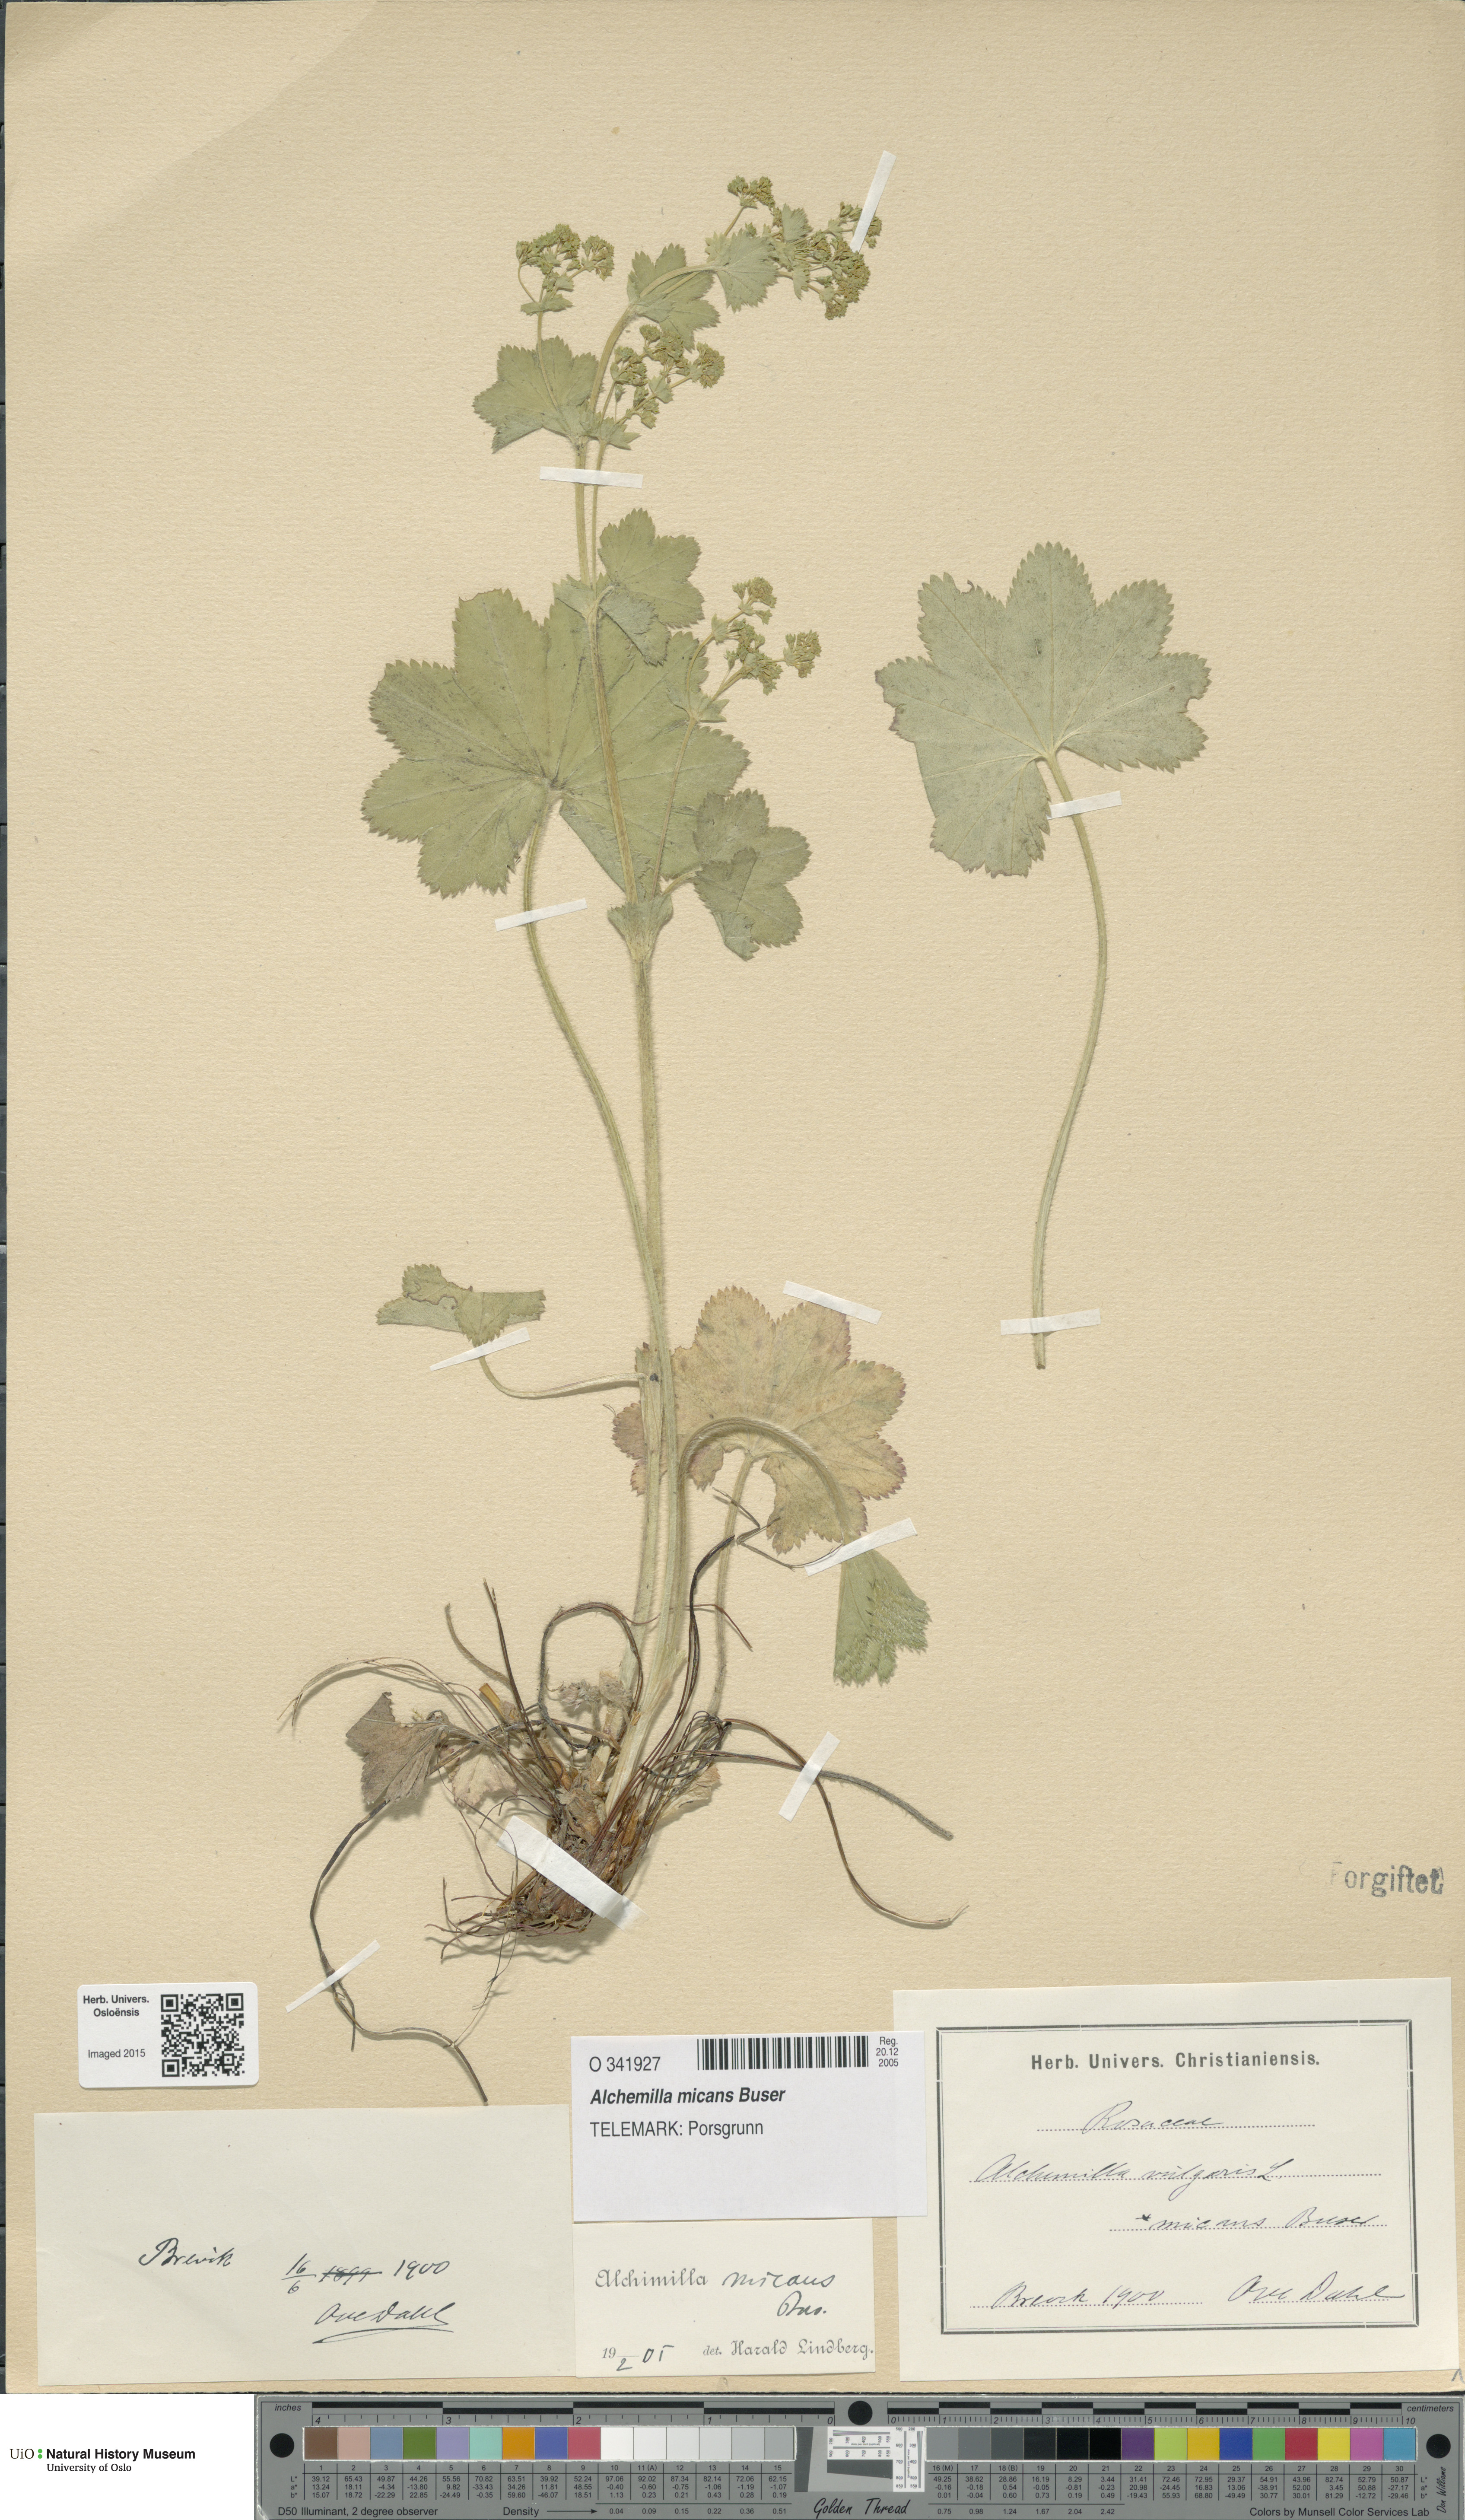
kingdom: Plantae
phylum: Tracheophyta
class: Magnoliopsida
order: Rosales
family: Rosaceae
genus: Alchemilla
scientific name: Alchemilla micans
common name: Gleaming lady's mantle
